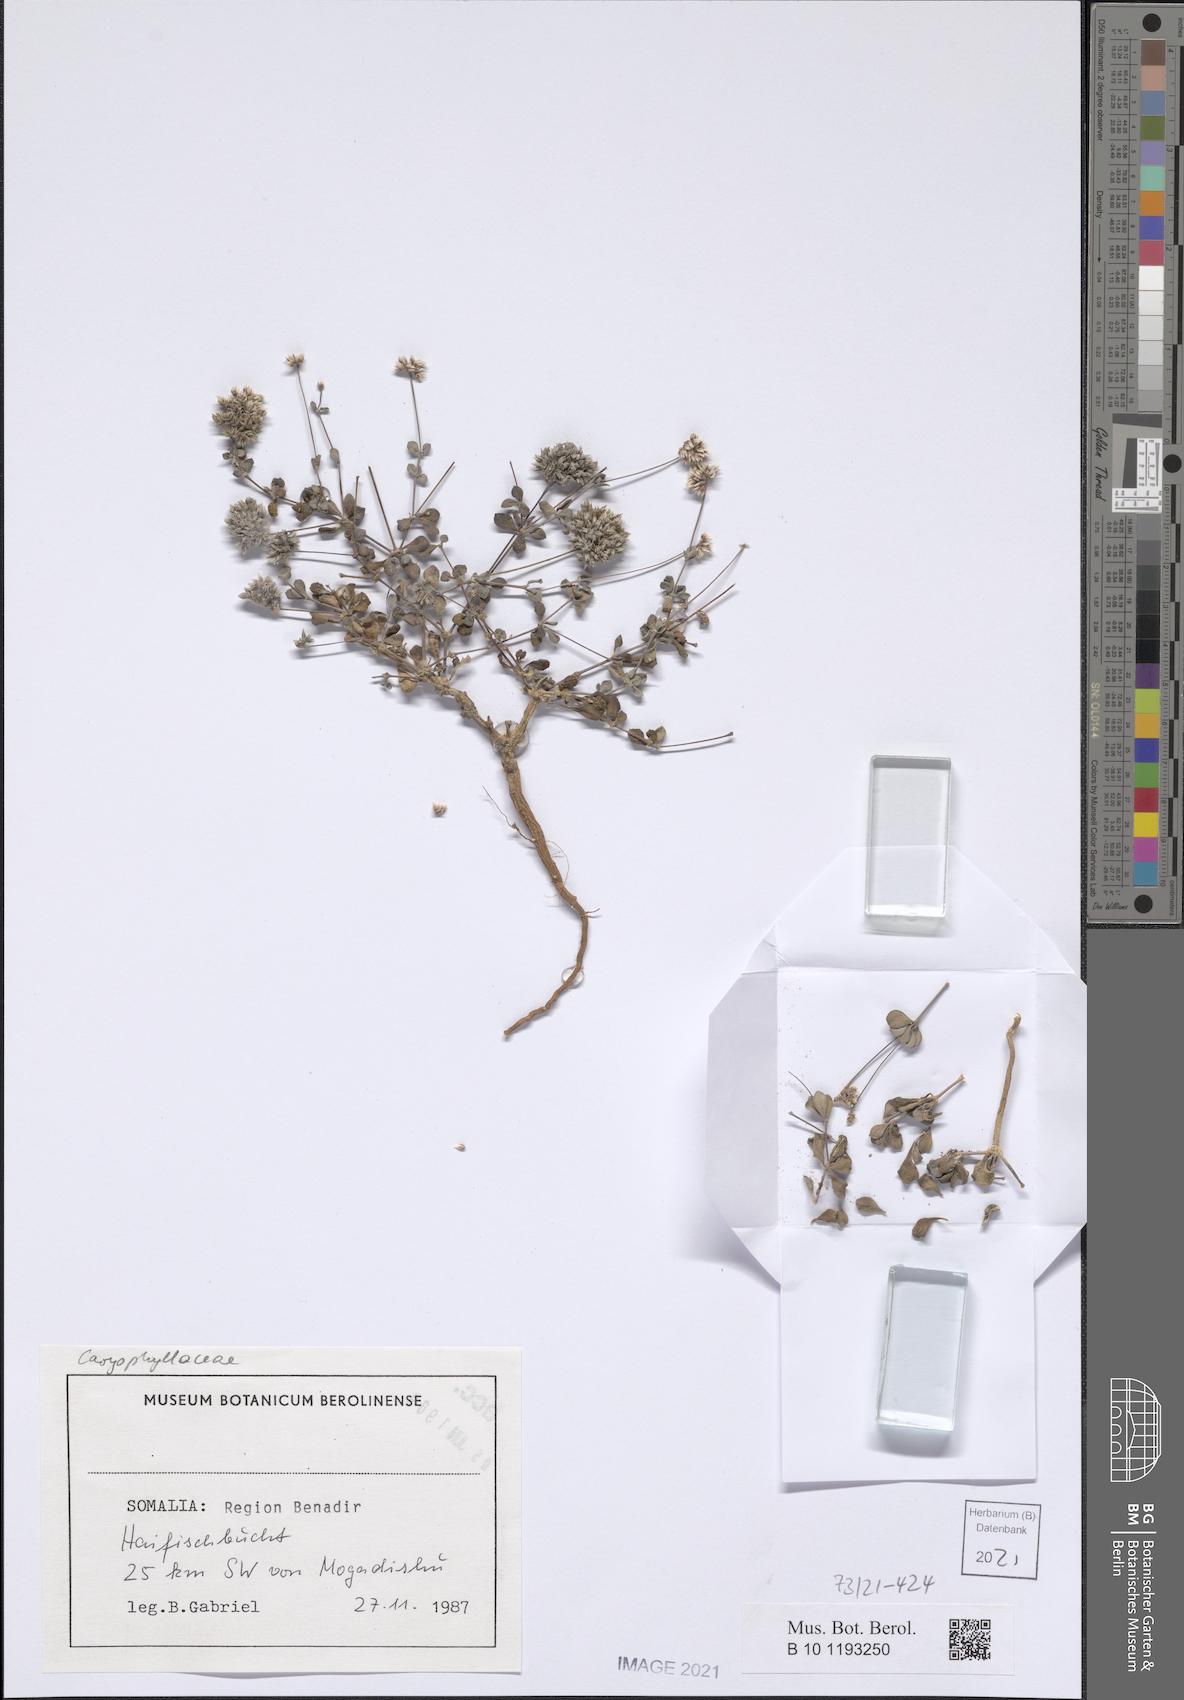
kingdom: Plantae
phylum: Tracheophyta
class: Magnoliopsida
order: Caryophyllales
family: Caryophyllaceae
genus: Polycarpaea
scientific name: Polycarpaea somalensis
